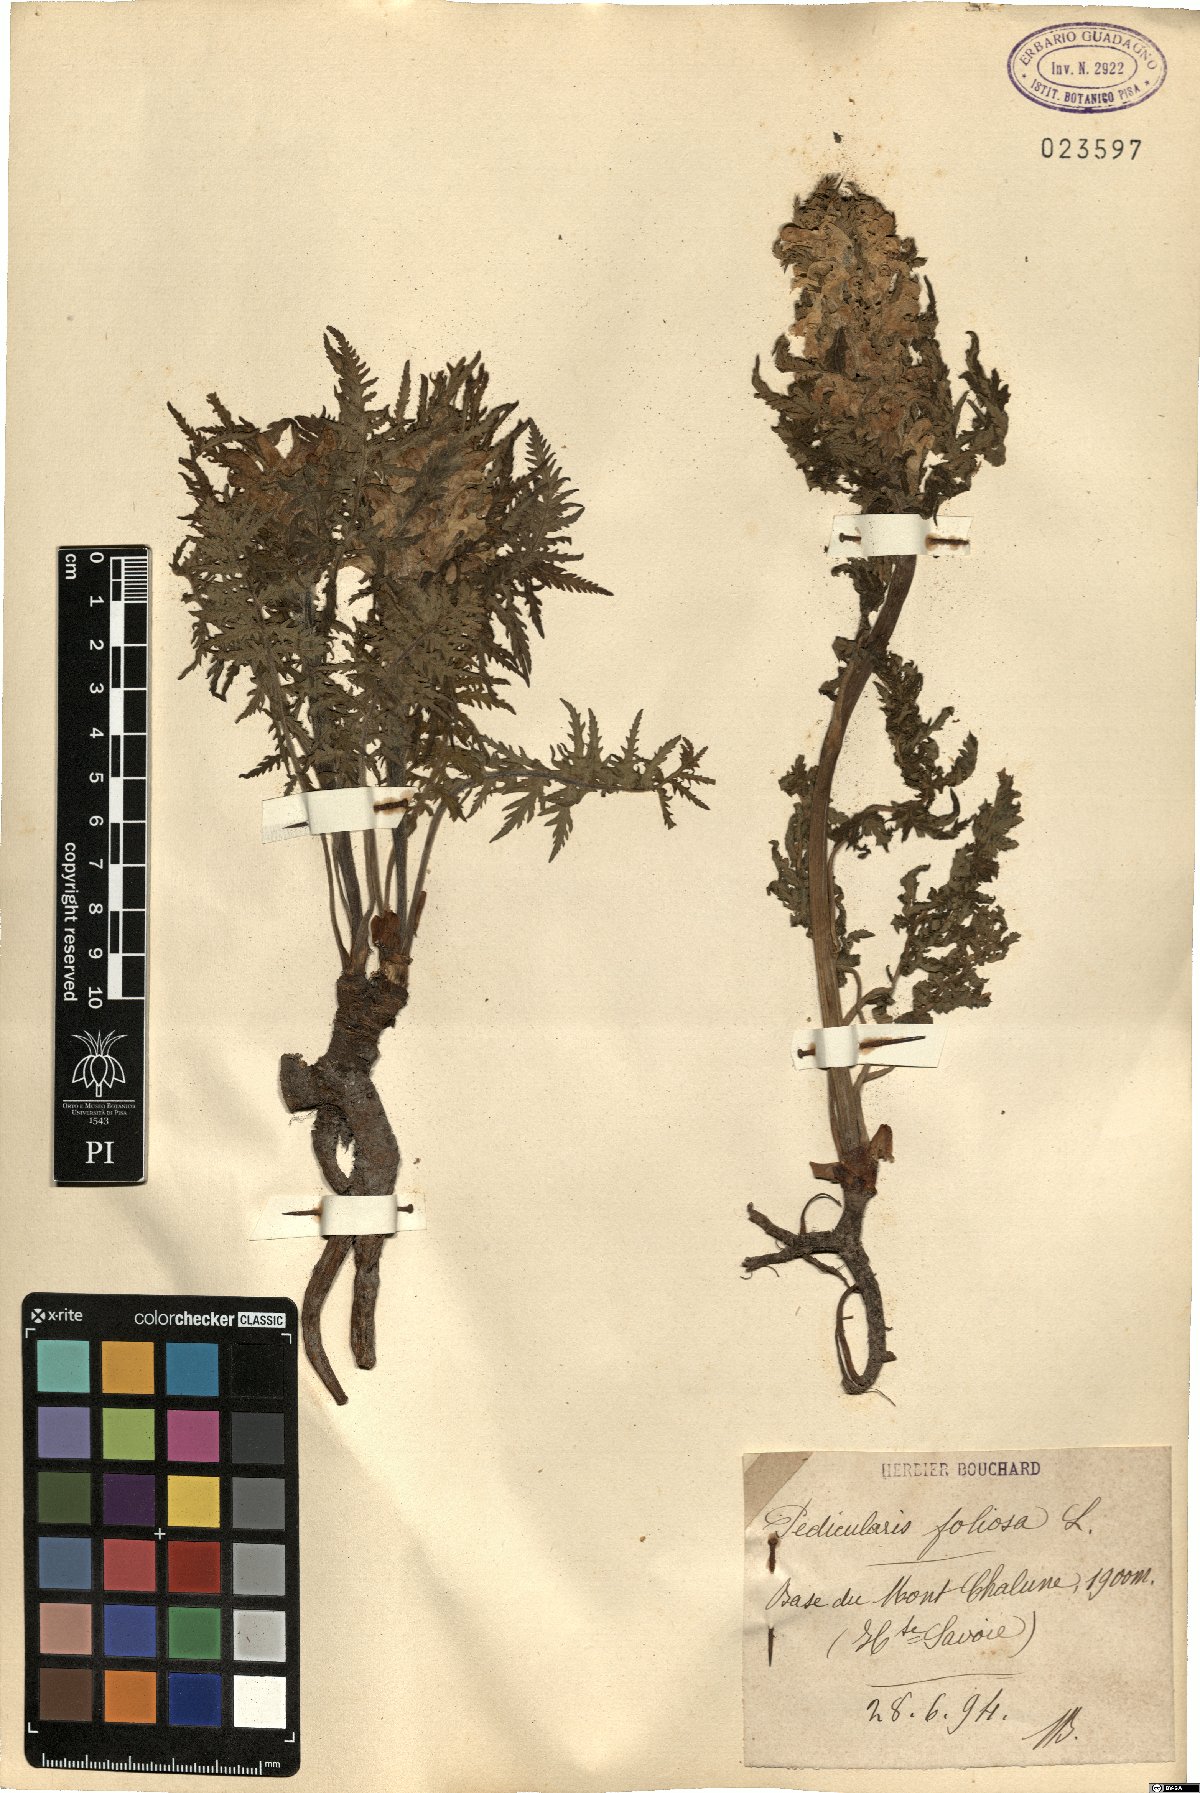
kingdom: Plantae
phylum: Tracheophyta
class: Magnoliopsida
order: Lamiales
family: Orobanchaceae
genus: Pedicularis
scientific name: Pedicularis foliosa
